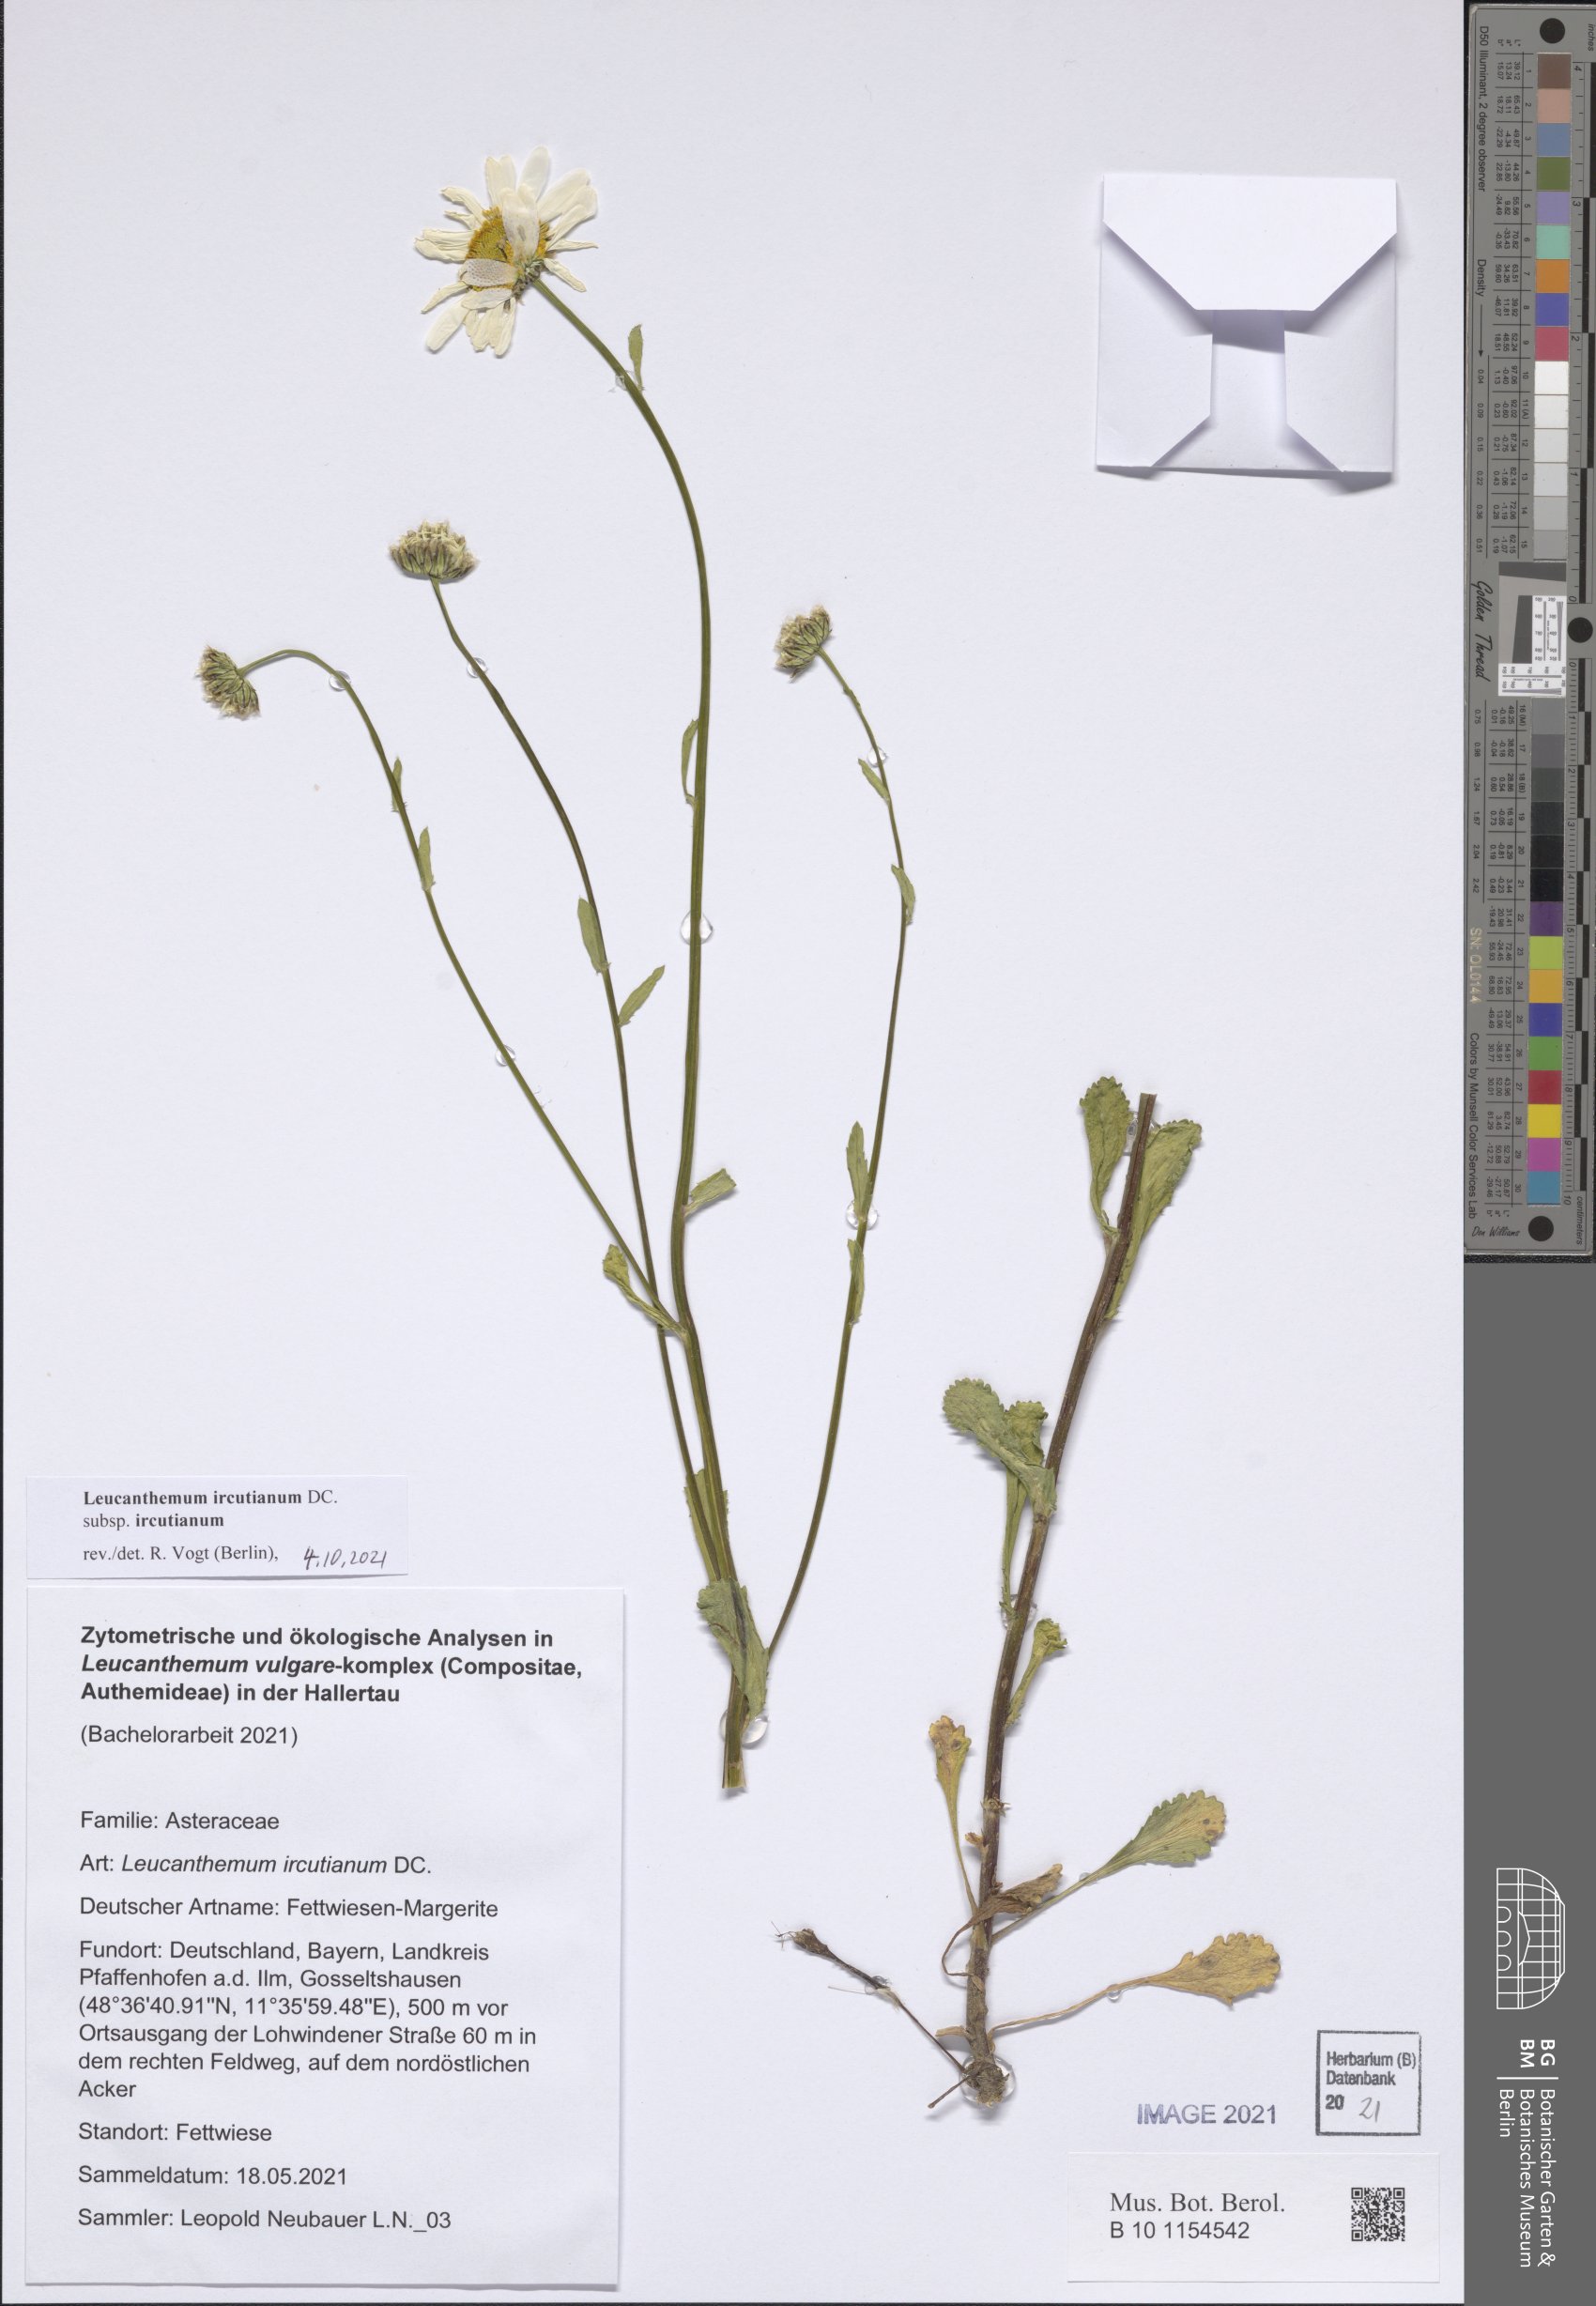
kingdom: Plantae
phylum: Tracheophyta
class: Magnoliopsida
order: Asterales
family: Asteraceae
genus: Leucanthemum
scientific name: Leucanthemum ircutianum
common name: Daisy
